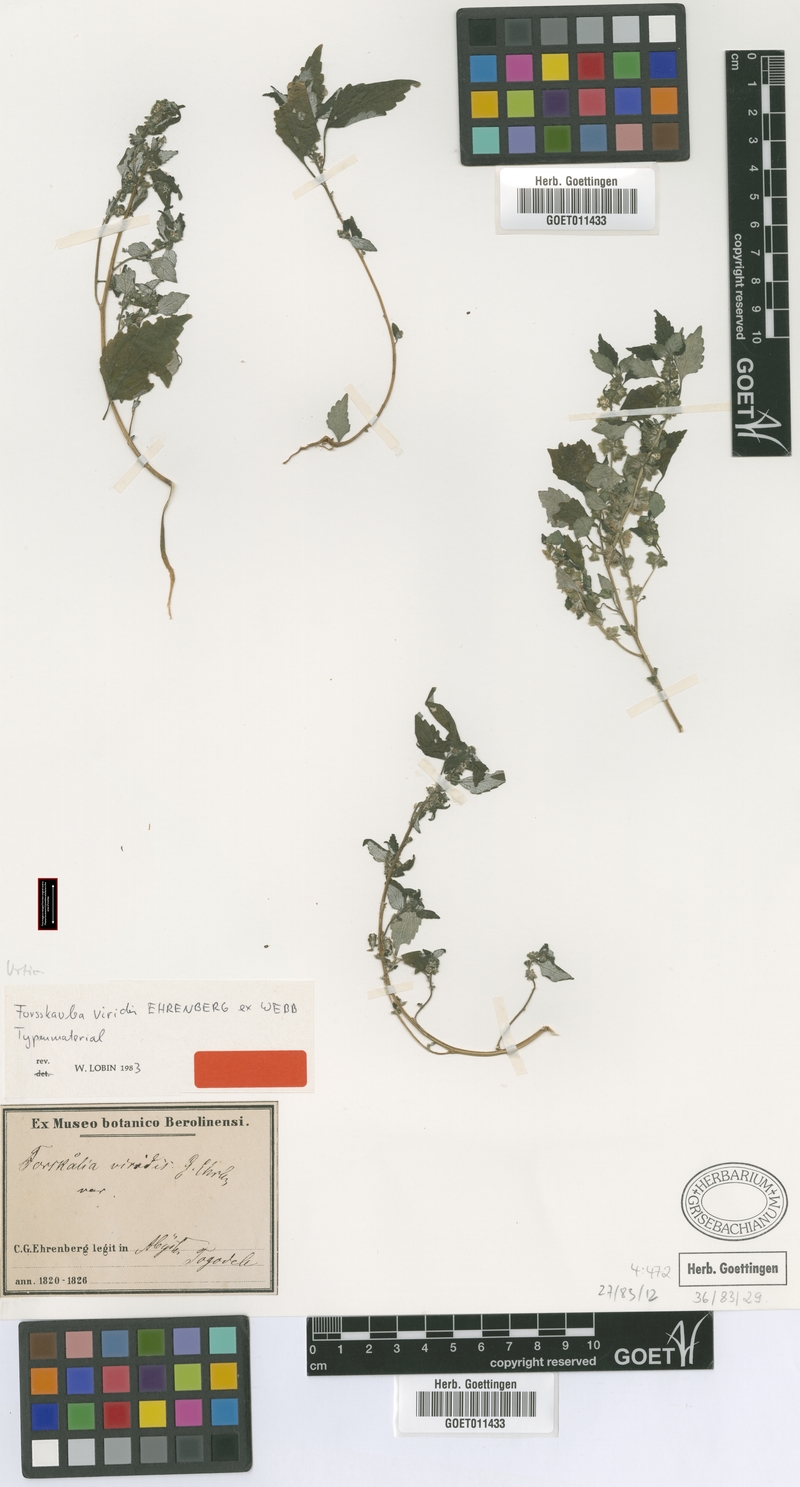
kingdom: Plantae
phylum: Tracheophyta
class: Magnoliopsida
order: Rosales
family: Urticaceae
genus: Forsskaolea
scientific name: Forsskaolea viridis
